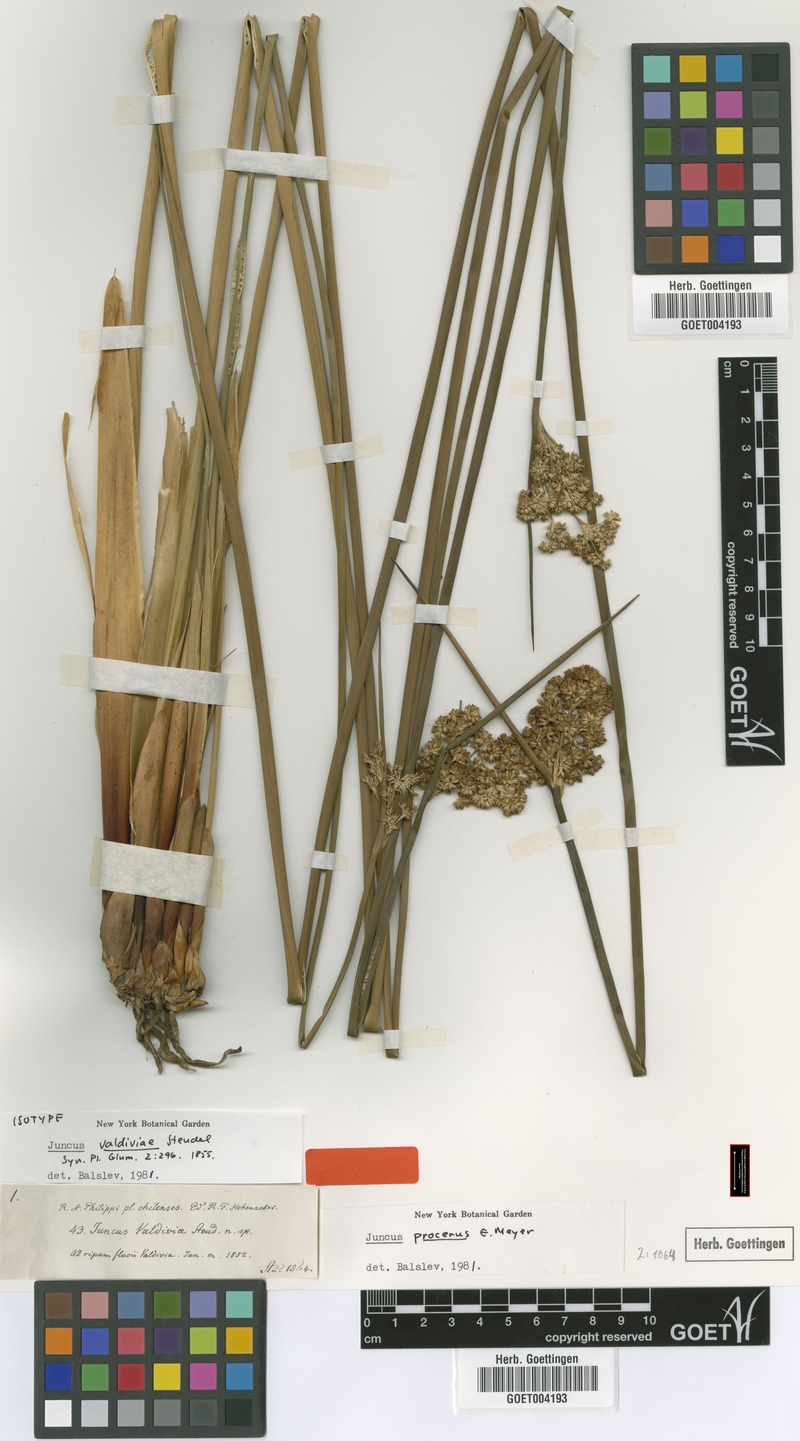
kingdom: Plantae
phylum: Tracheophyta
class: Liliopsida
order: Poales
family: Juncaceae
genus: Juncus
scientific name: Juncus procerus
